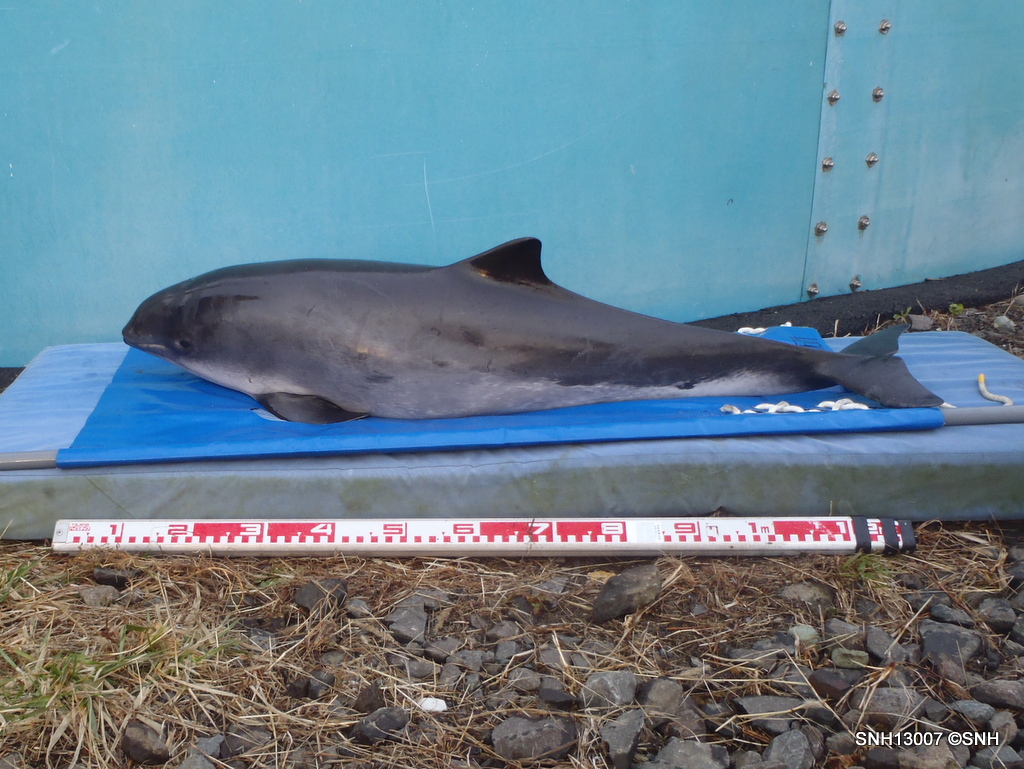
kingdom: Animalia
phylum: Chordata
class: Mammalia
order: Cetacea
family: Phocoenidae
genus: Phocoena
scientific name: Phocoena phocoena
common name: Harbour porpoise
